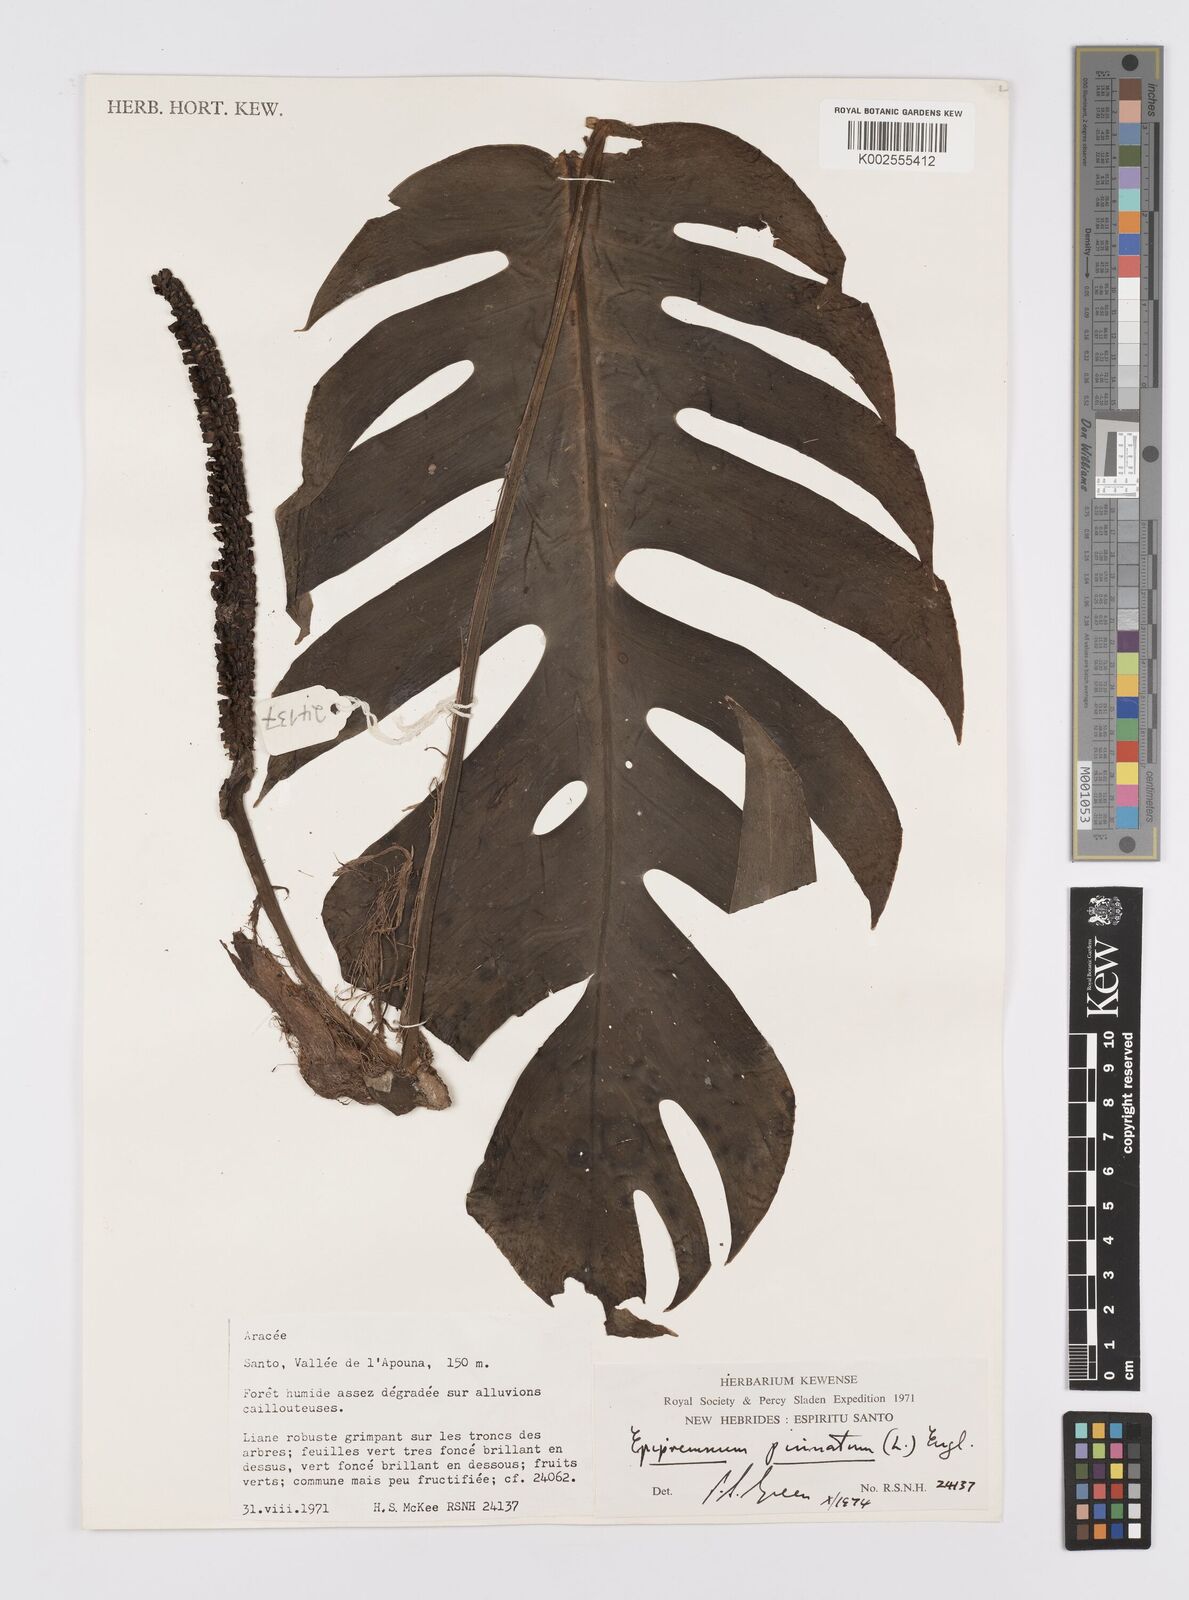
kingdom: Plantae
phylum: Tracheophyta
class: Liliopsida
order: Alismatales
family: Araceae
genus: Epipremnum
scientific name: Epipremnum pinnatum
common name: Centipede tongavine
